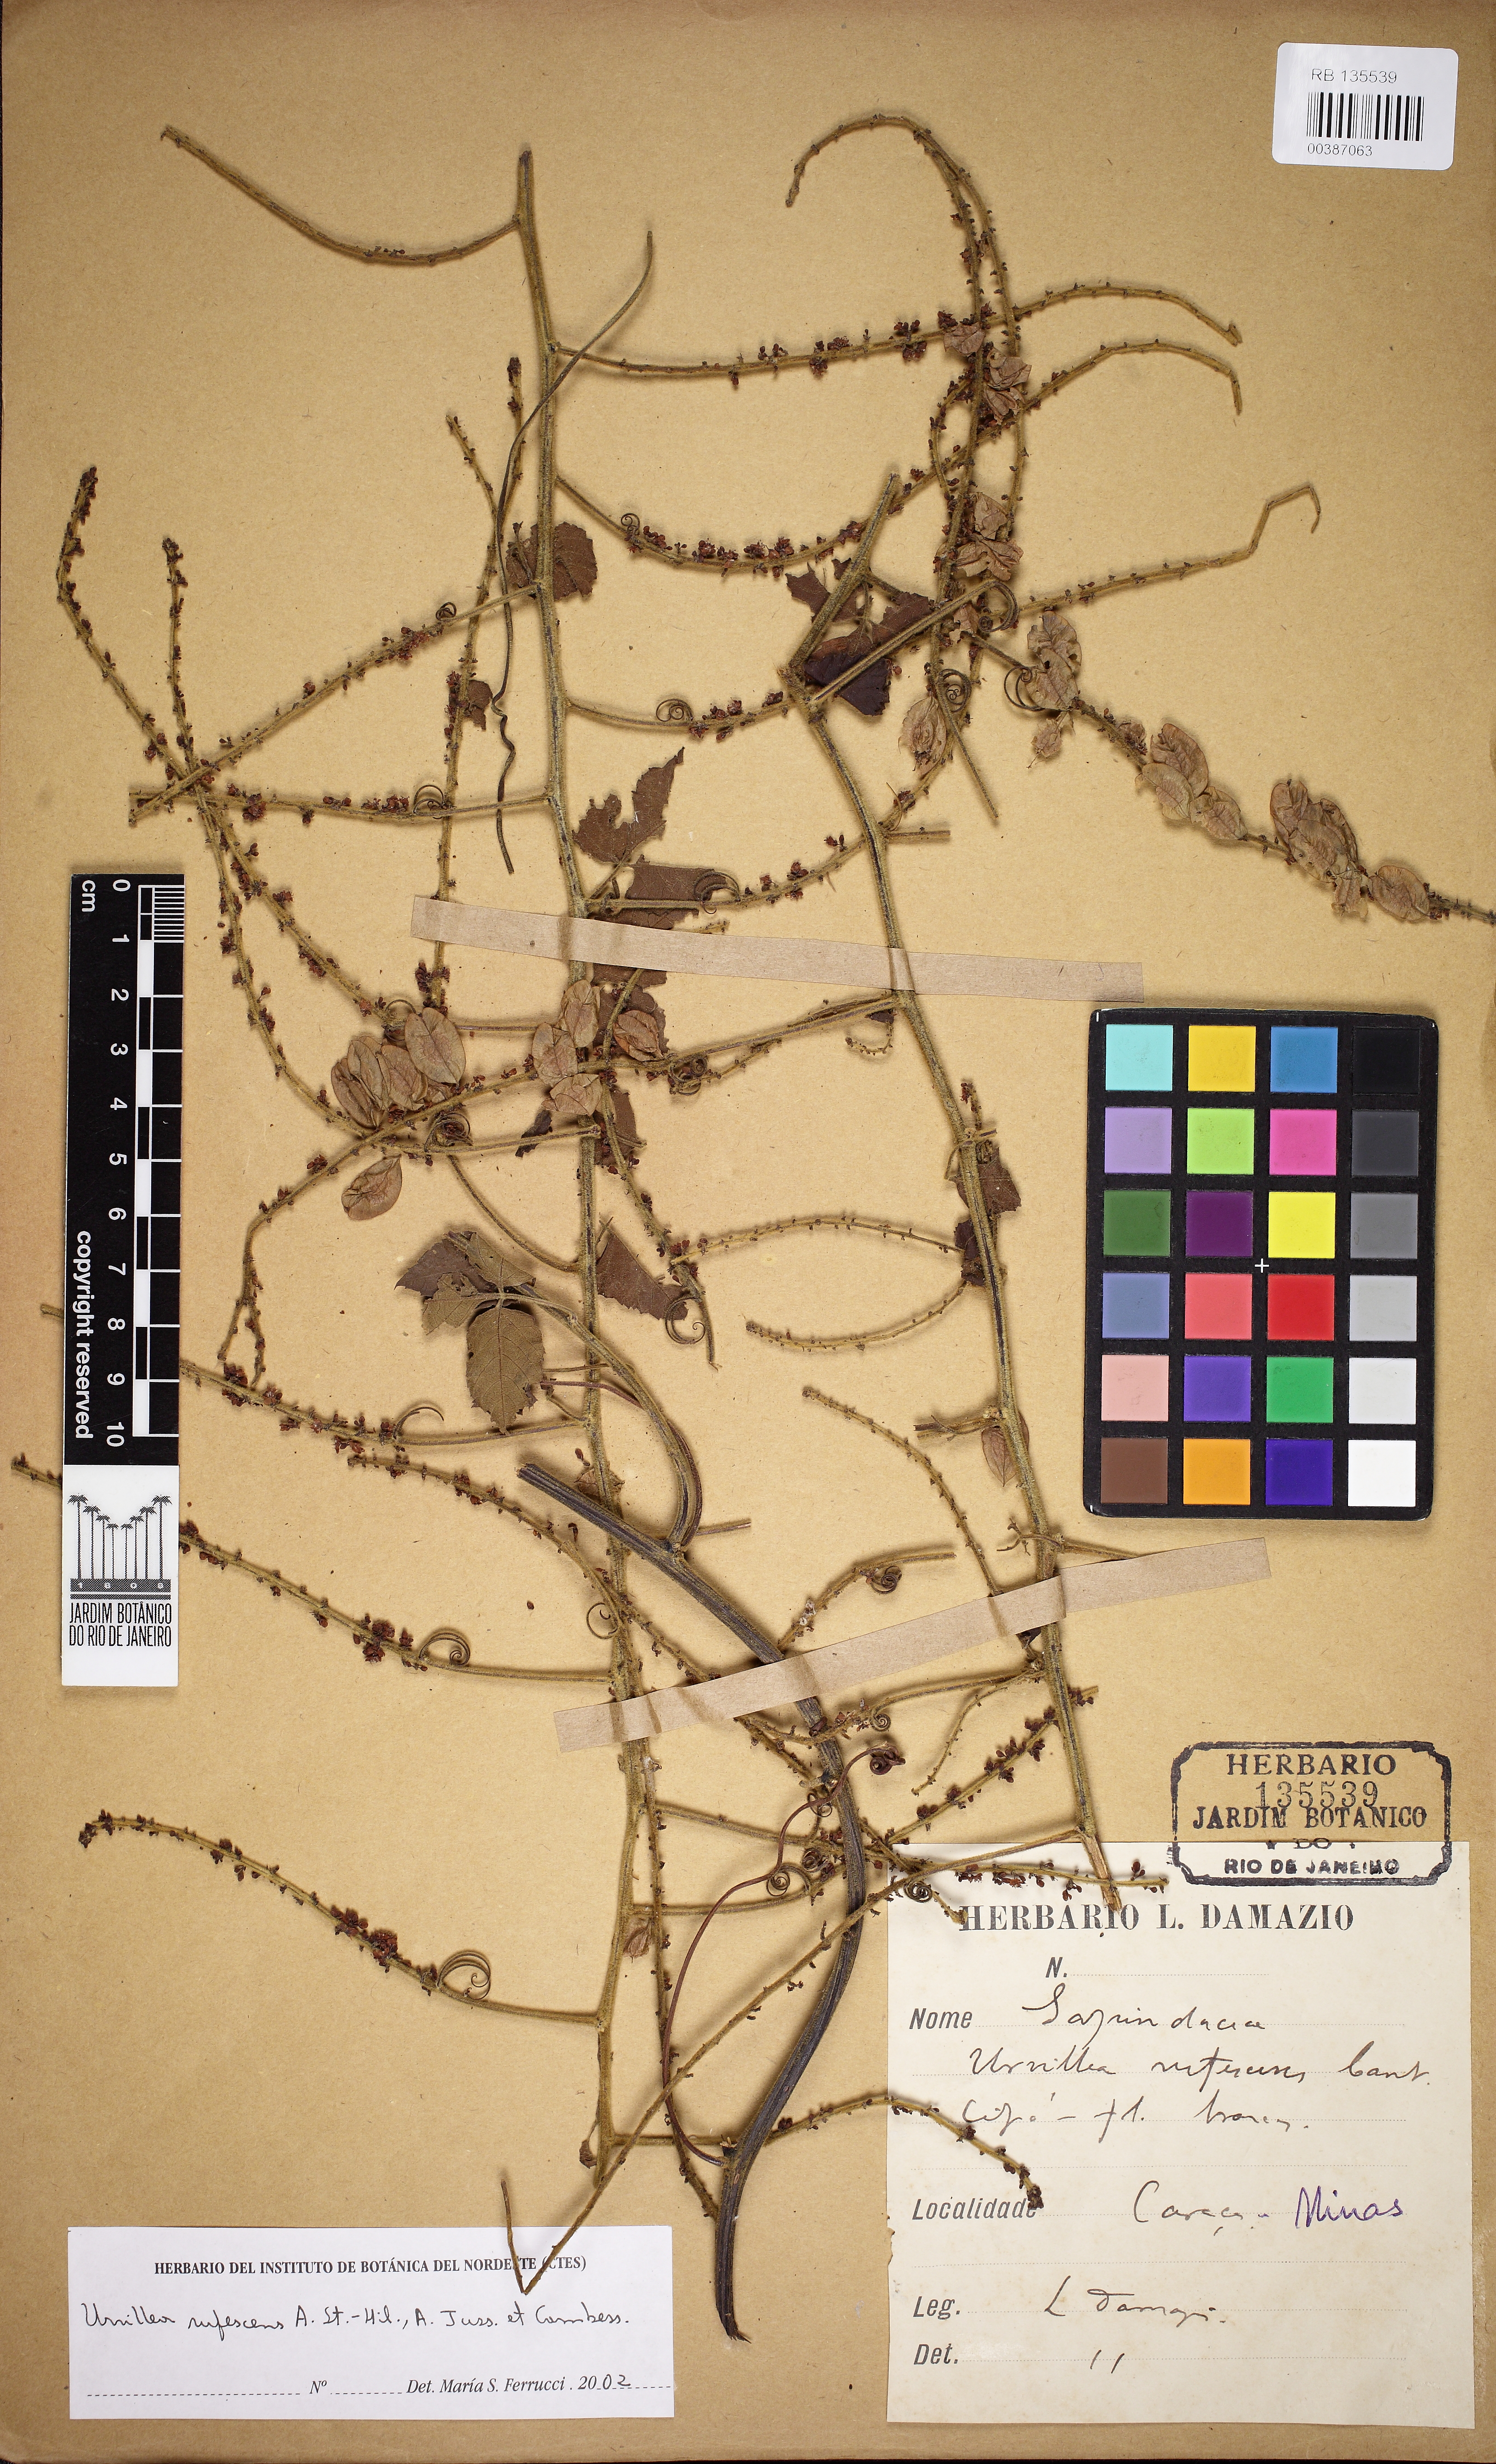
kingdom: Plantae
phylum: Tracheophyta
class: Magnoliopsida
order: Sapindales
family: Sapindaceae
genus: Urvillea
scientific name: Urvillea rufescens
